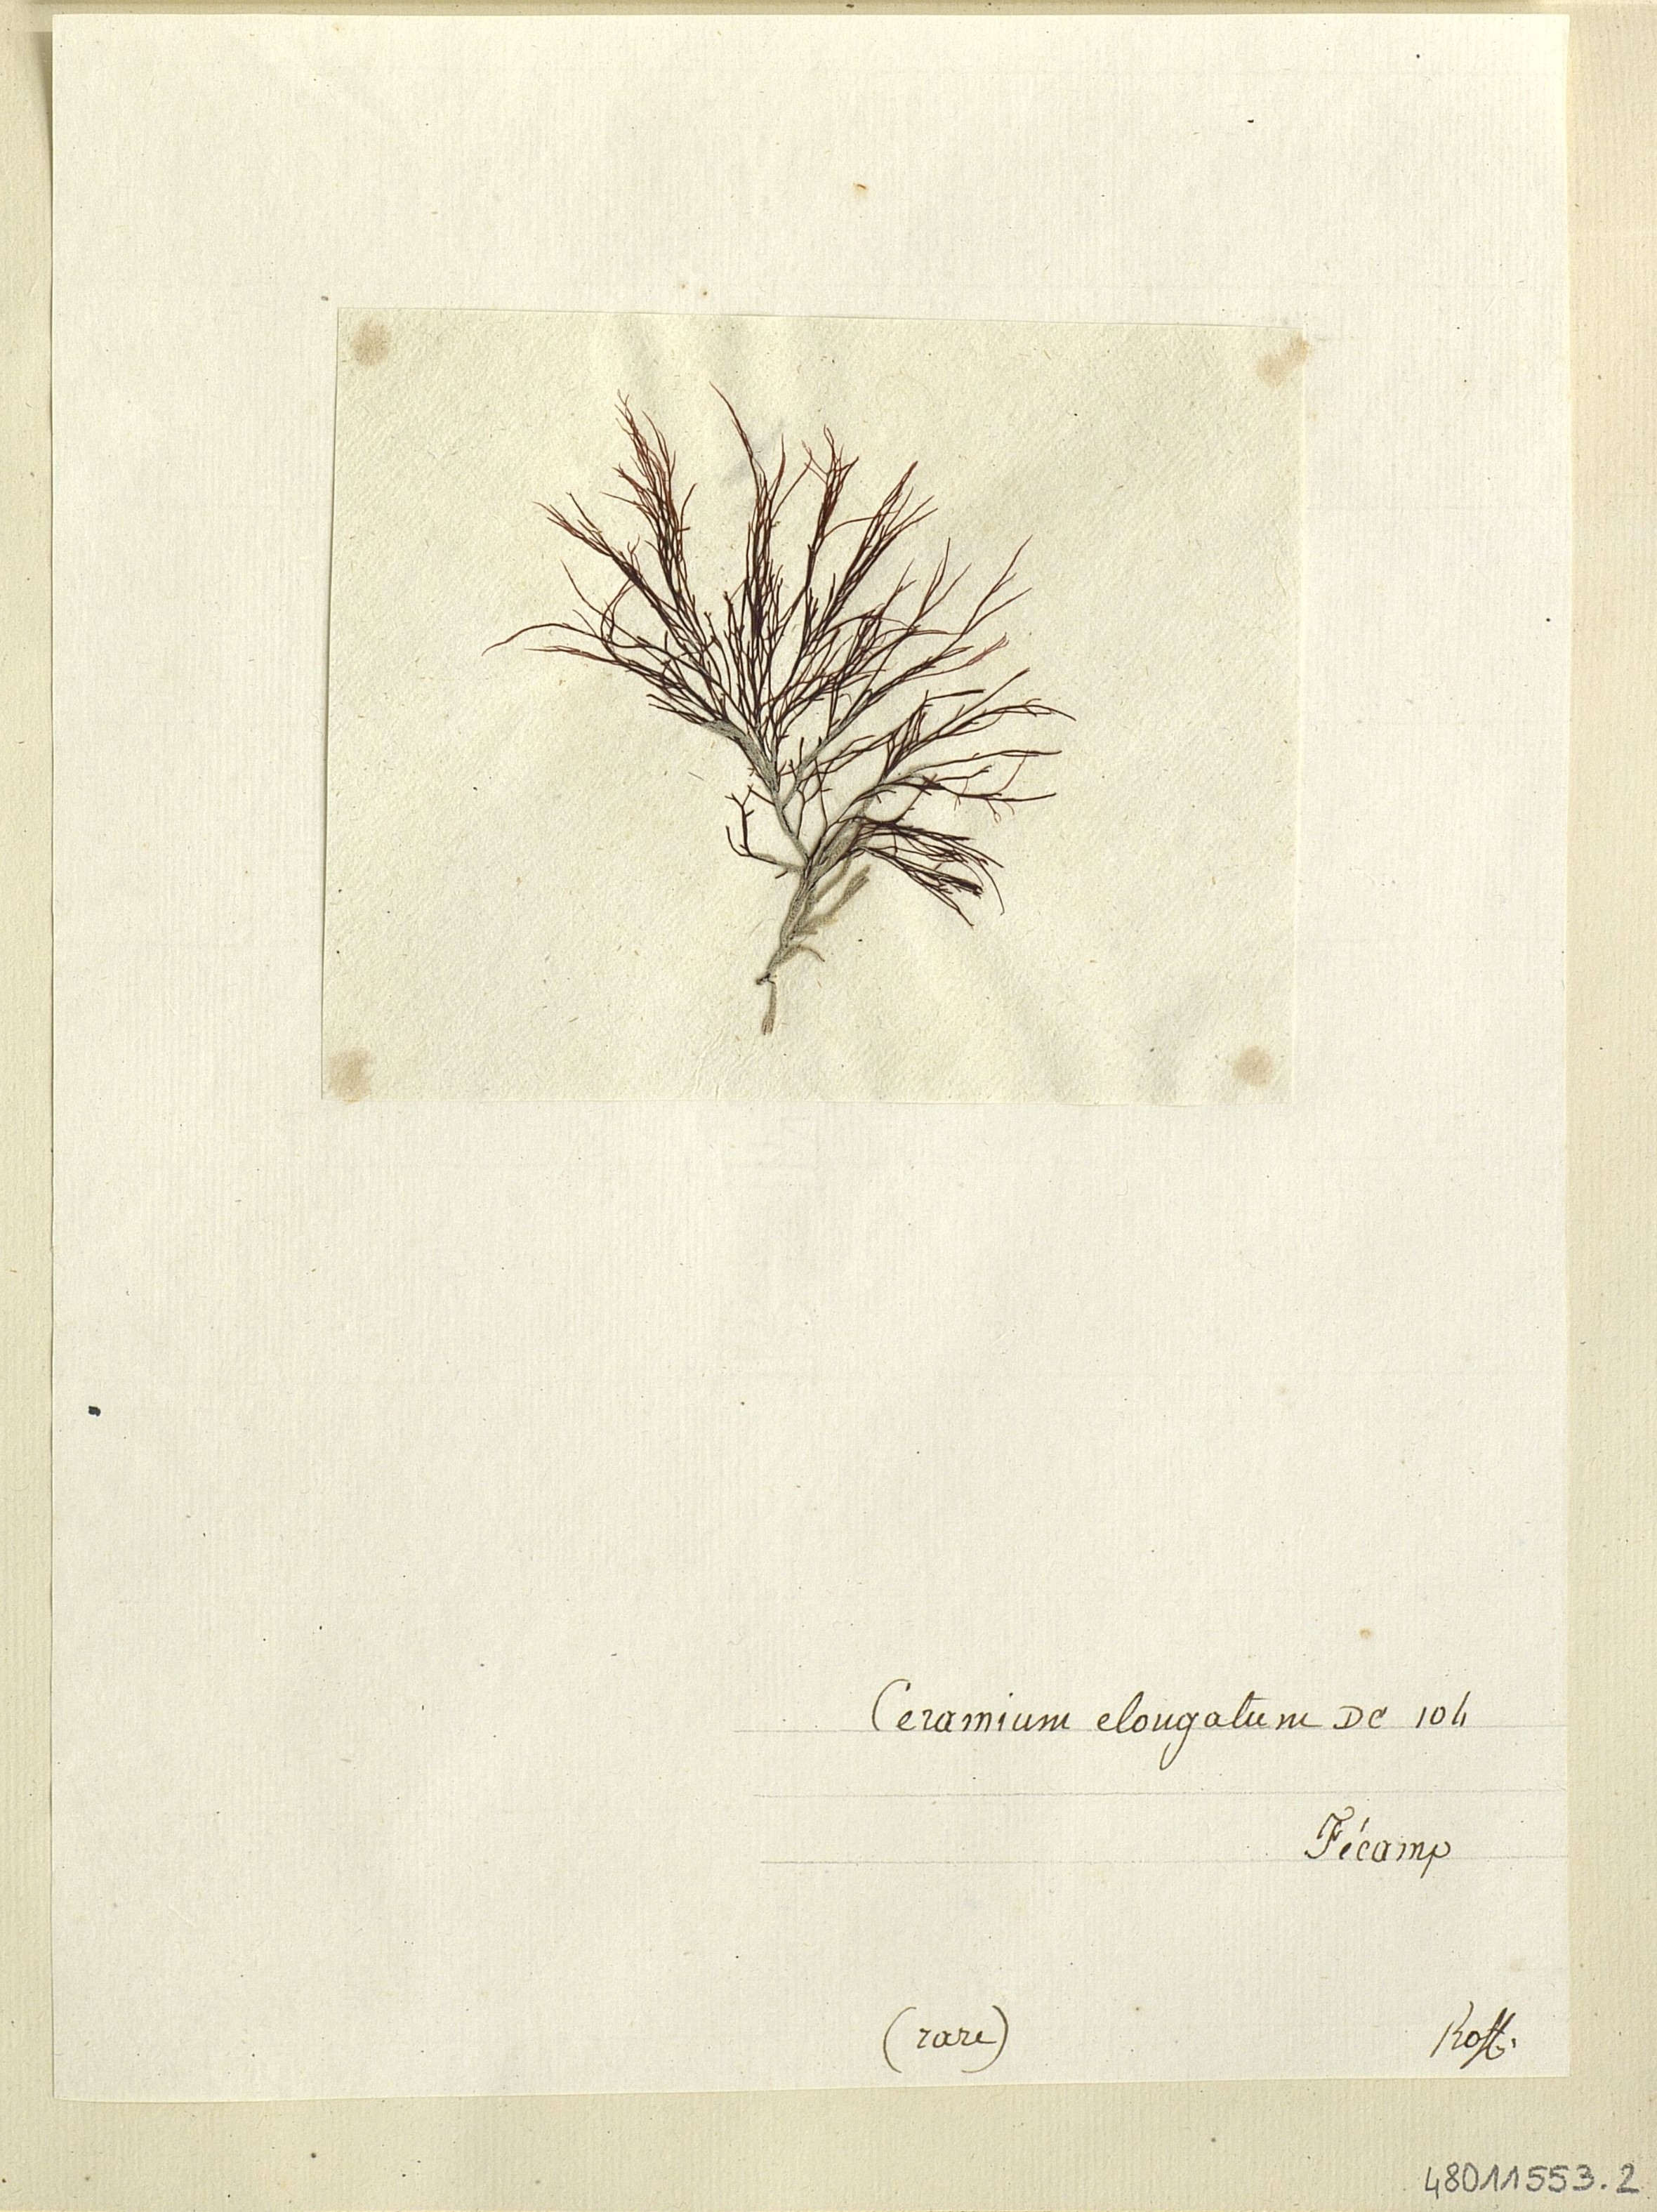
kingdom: Plantae
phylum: Rhodophyta
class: Florideophyceae
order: Ceramiales
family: Rhodomelaceae
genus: Vertebrata
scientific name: Vertebrata spec
